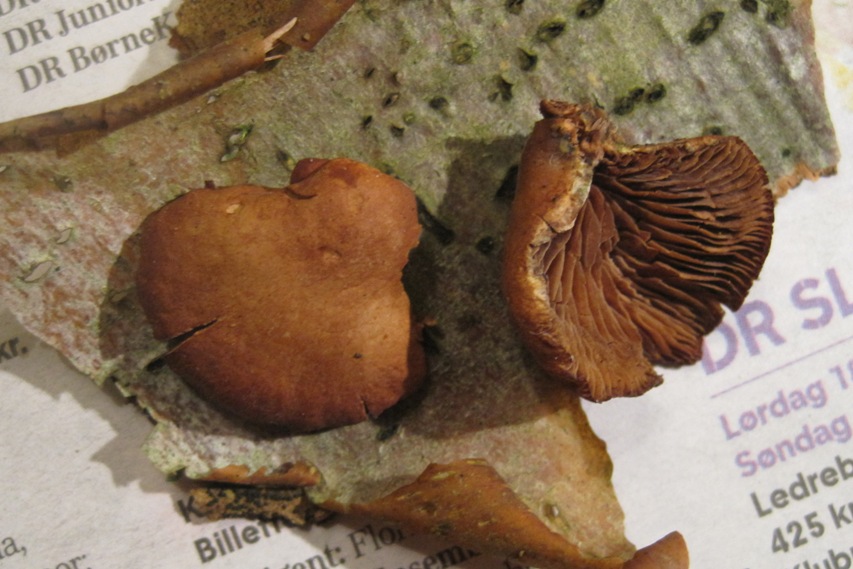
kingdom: Fungi
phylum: Basidiomycota
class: Agaricomycetes
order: Agaricales
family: Strophariaceae
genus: Deconica
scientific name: Deconica horizontalis
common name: ved-stråhat
